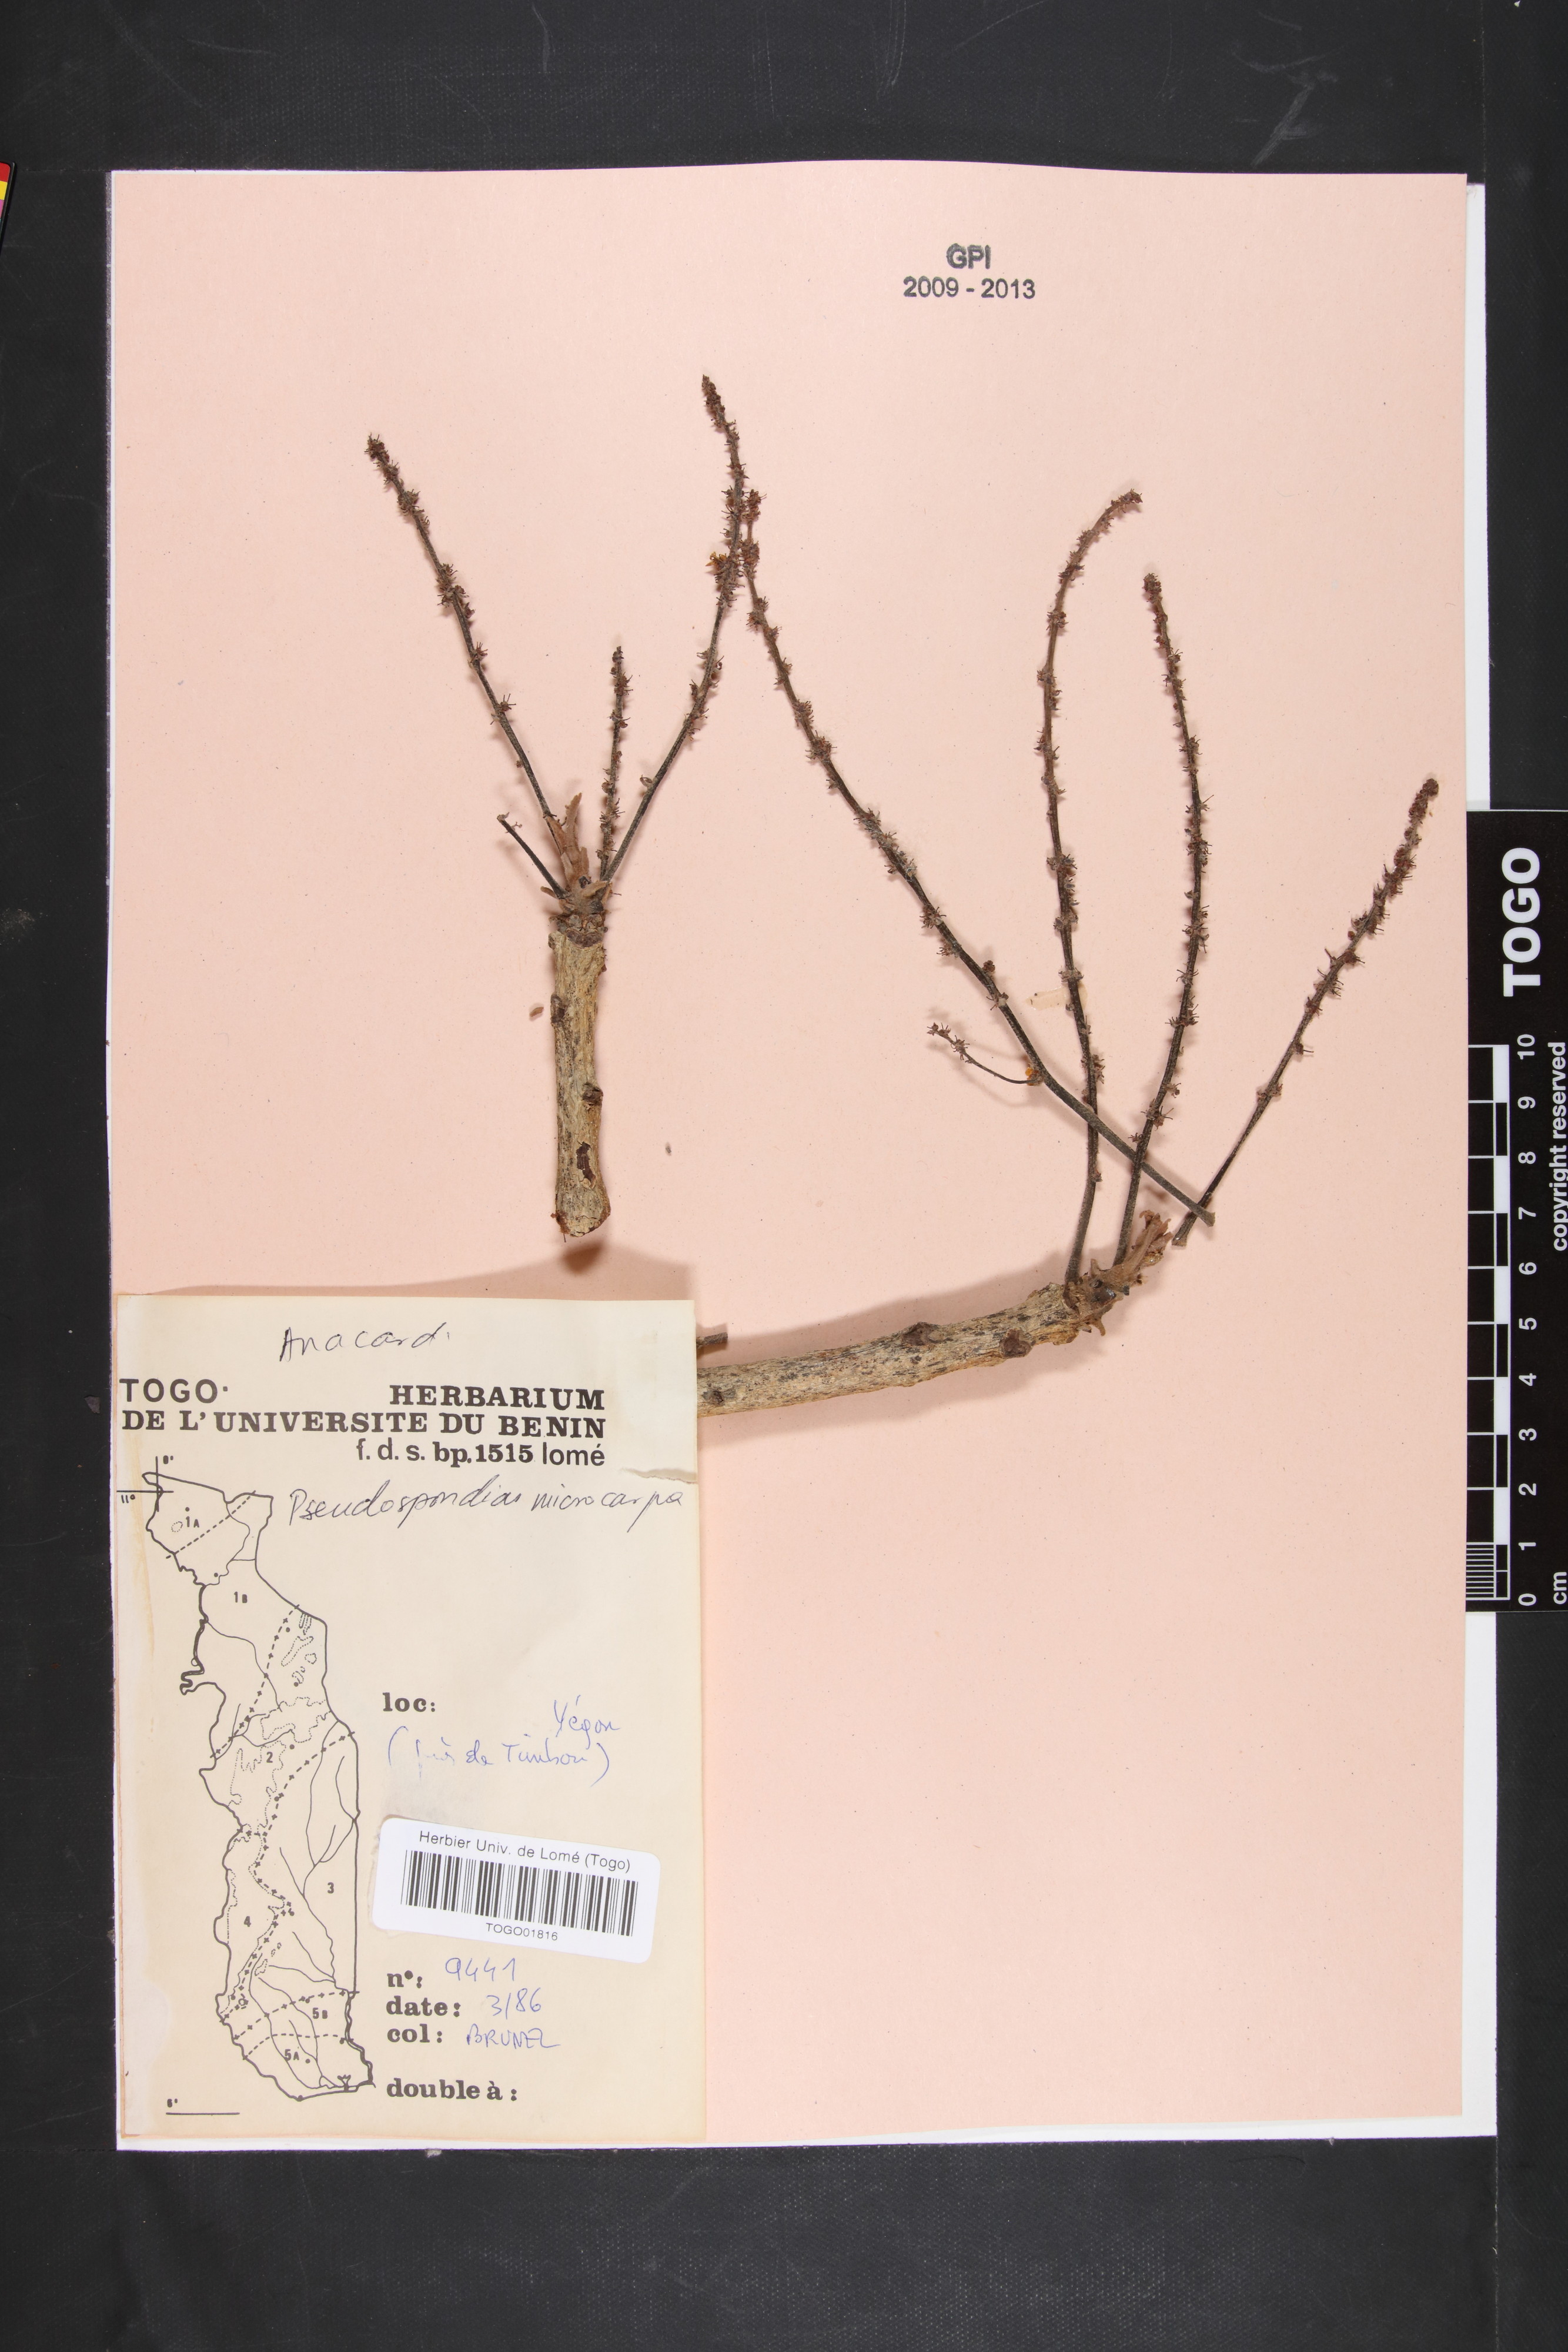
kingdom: Plantae
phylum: Tracheophyta
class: Magnoliopsida
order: Sapindales
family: Anacardiaceae
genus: Pseudospondias
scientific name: Pseudospondias microcarpa
